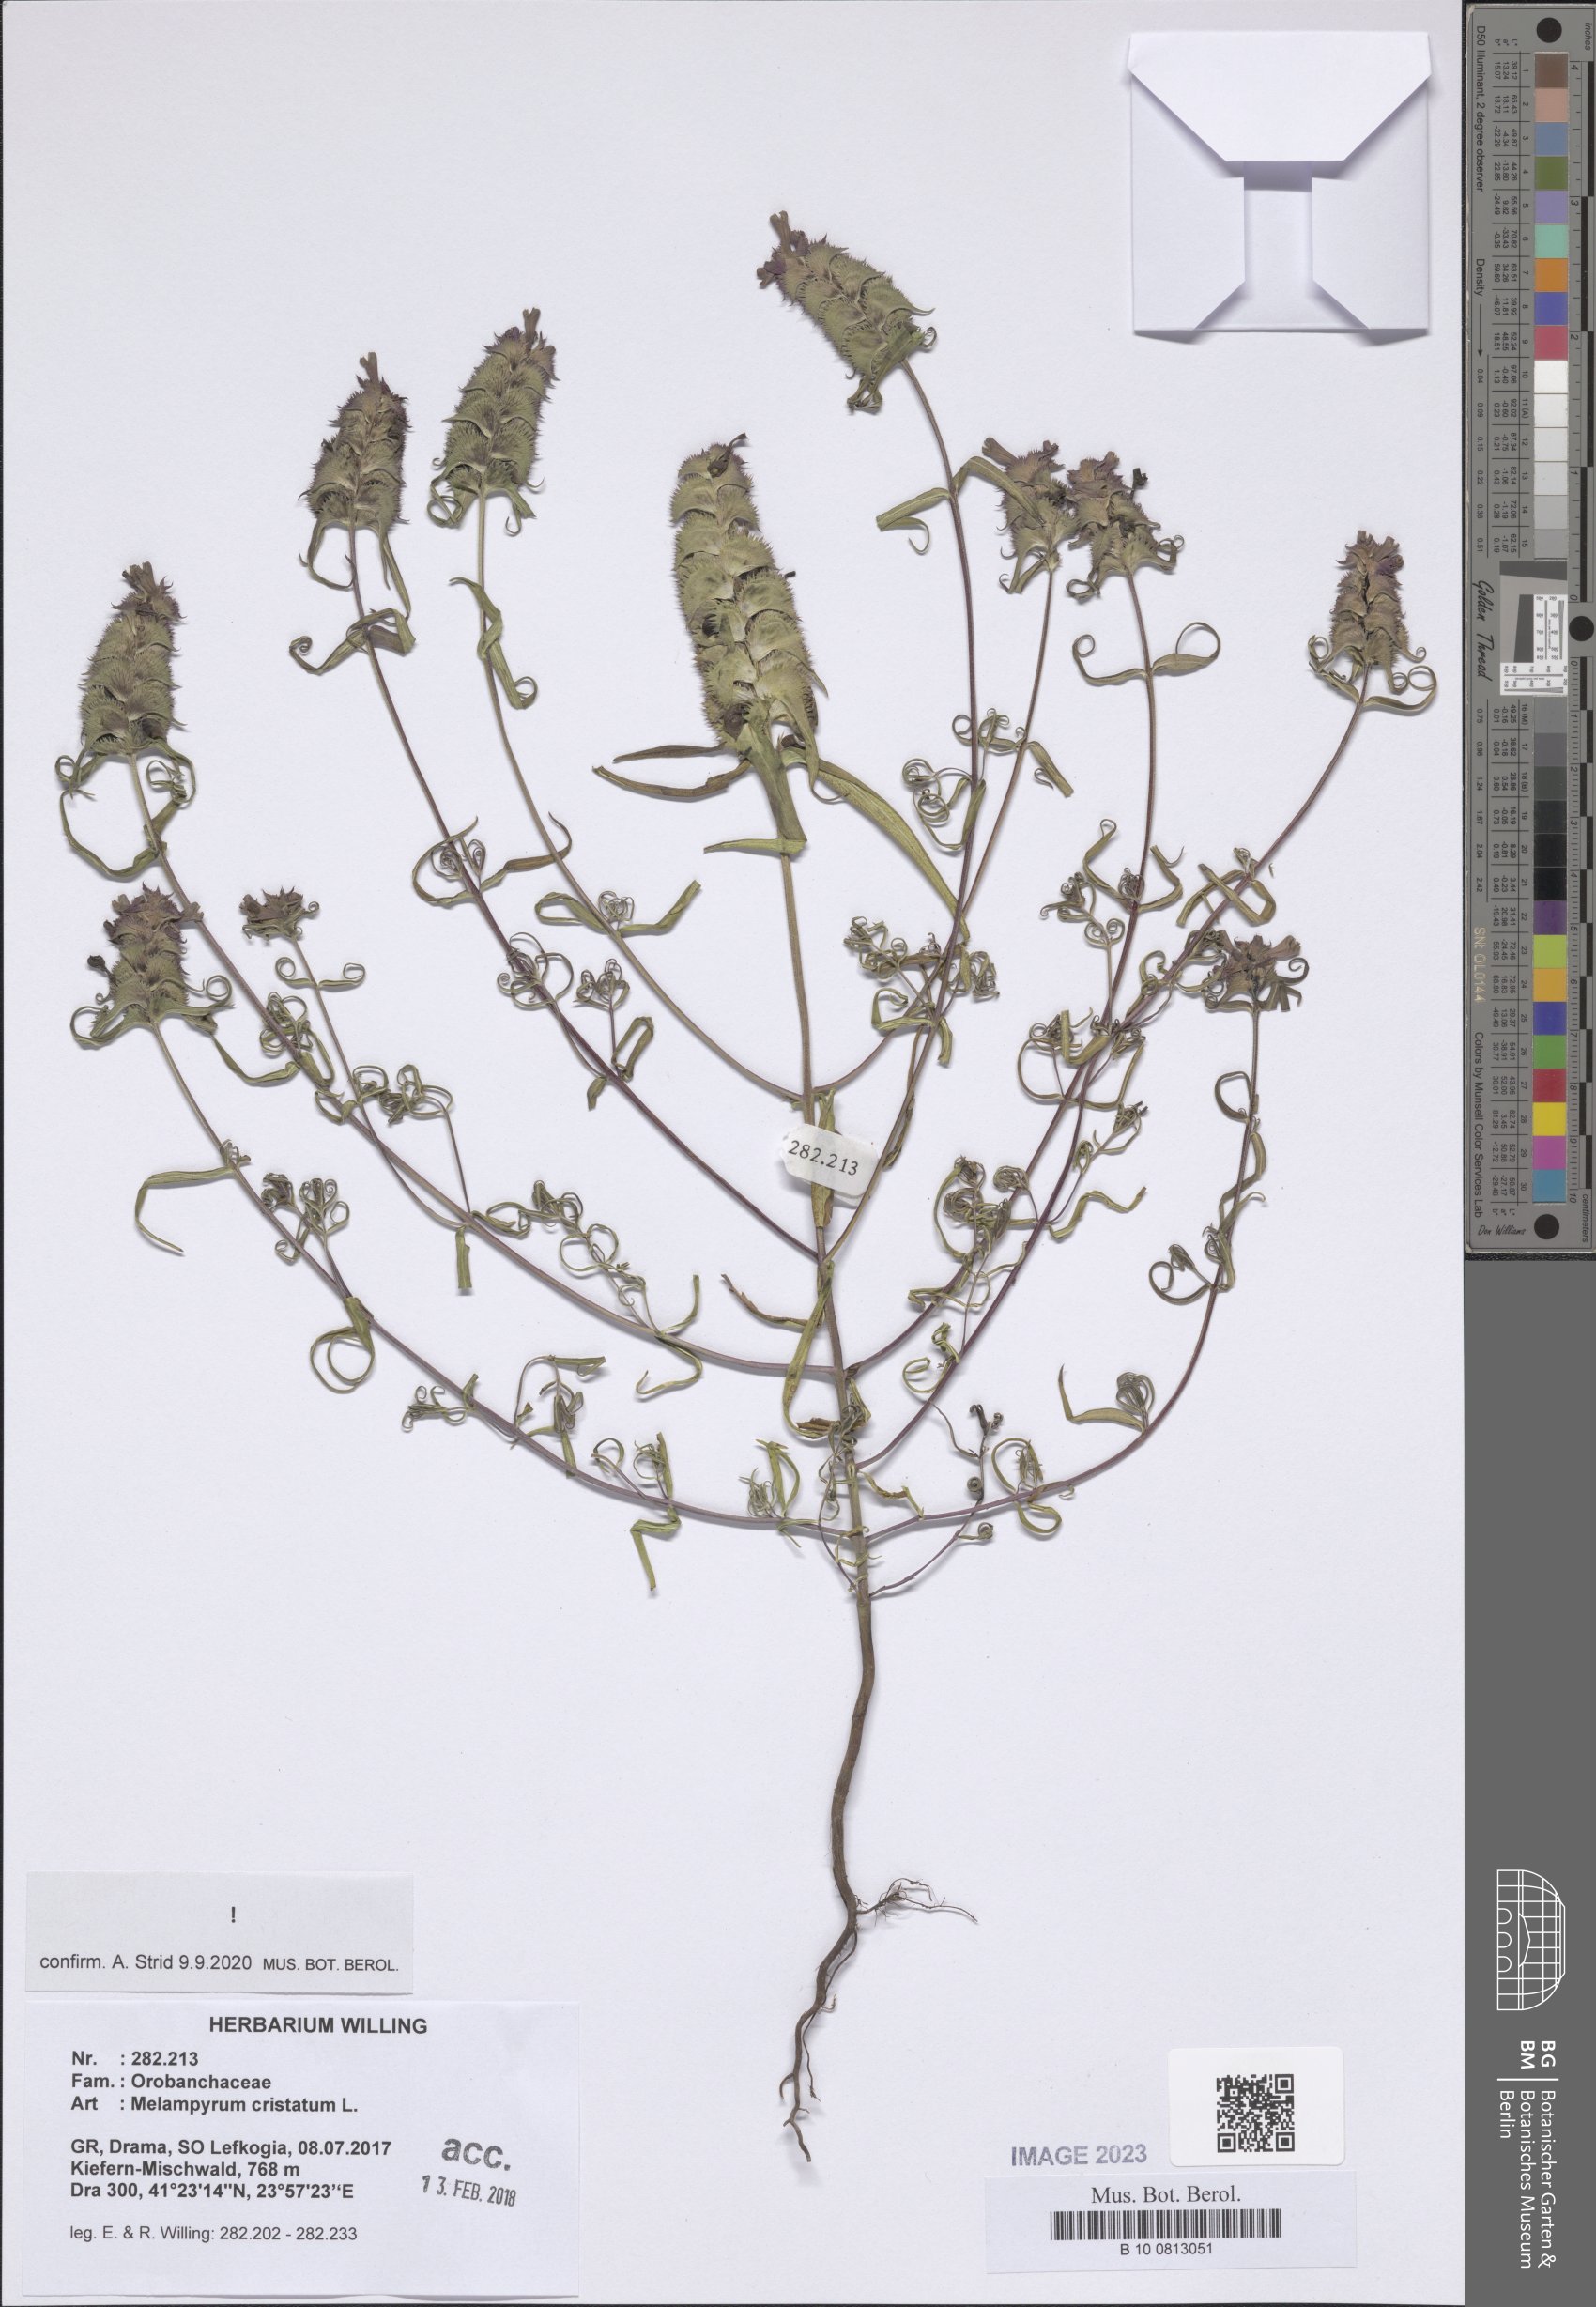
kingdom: Plantae
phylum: Tracheophyta
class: Magnoliopsida
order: Lamiales
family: Orobanchaceae
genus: Melampyrum
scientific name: Melampyrum cristatum
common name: Crested cow-wheat
